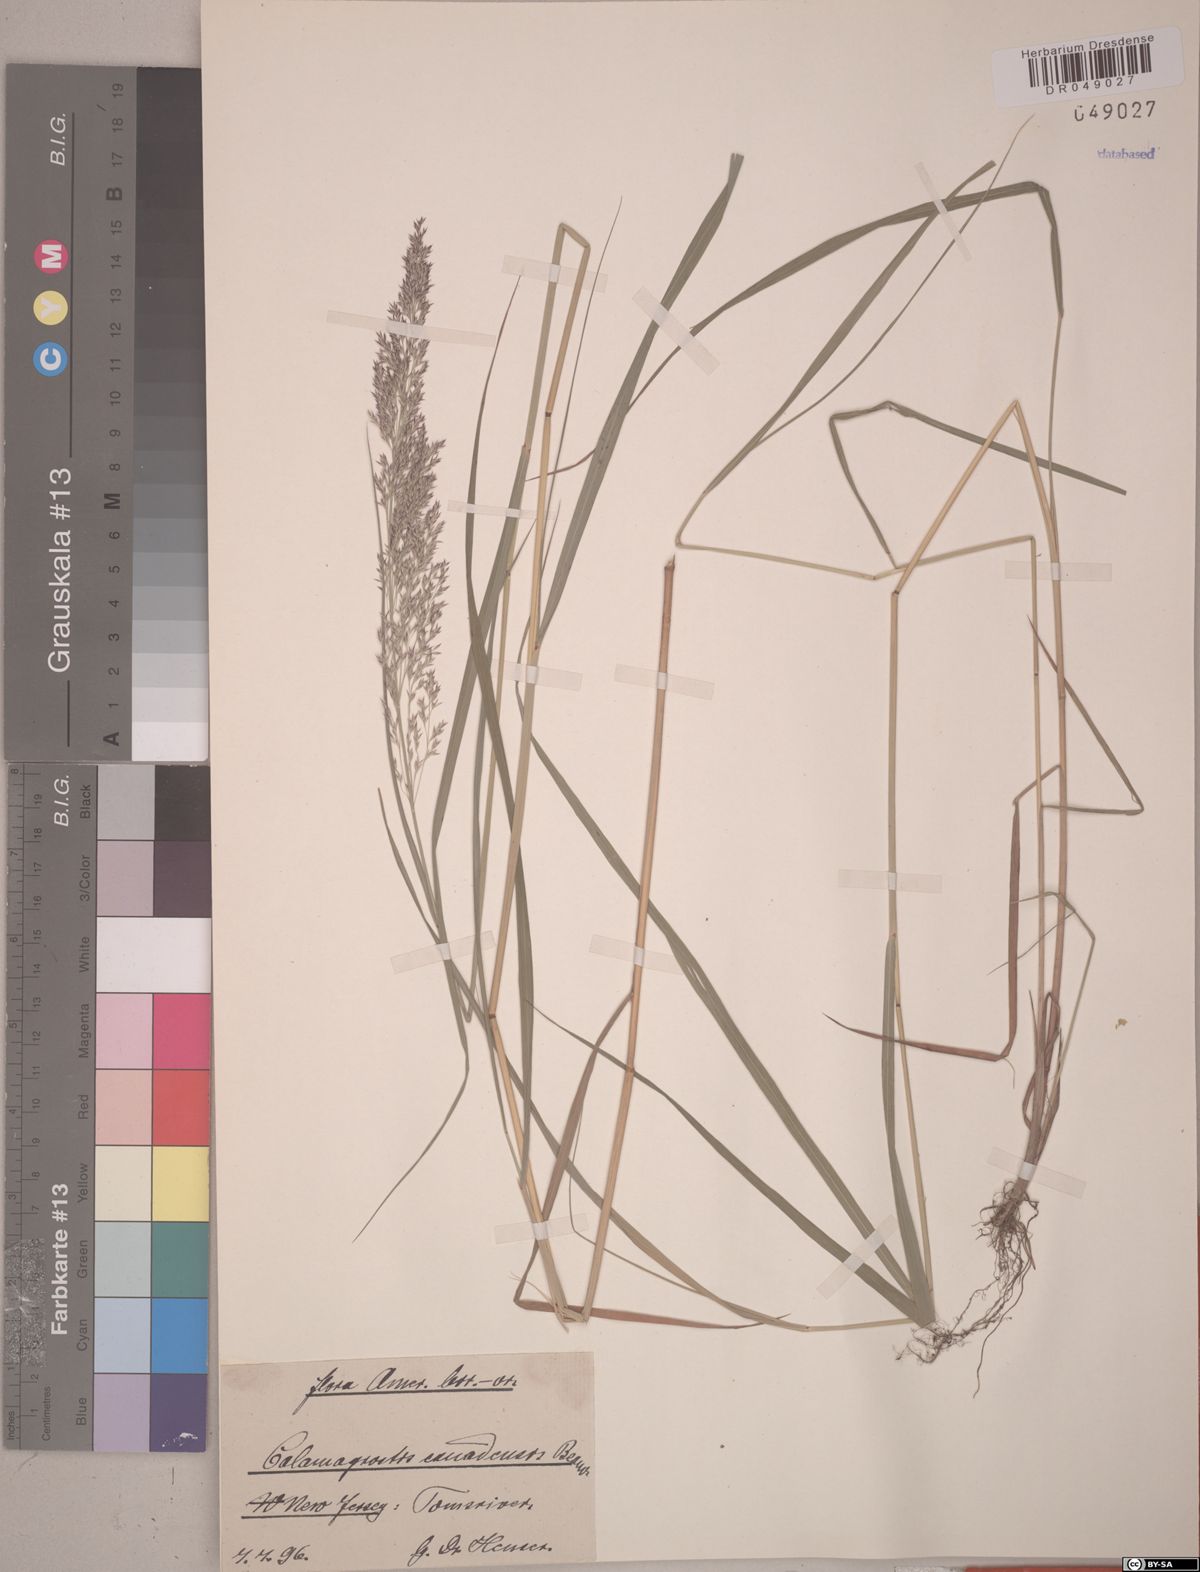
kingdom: Plantae
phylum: Tracheophyta
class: Liliopsida
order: Poales
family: Poaceae
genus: Calamagrostis
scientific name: Calamagrostis canadensis
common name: Canada bluejoint
